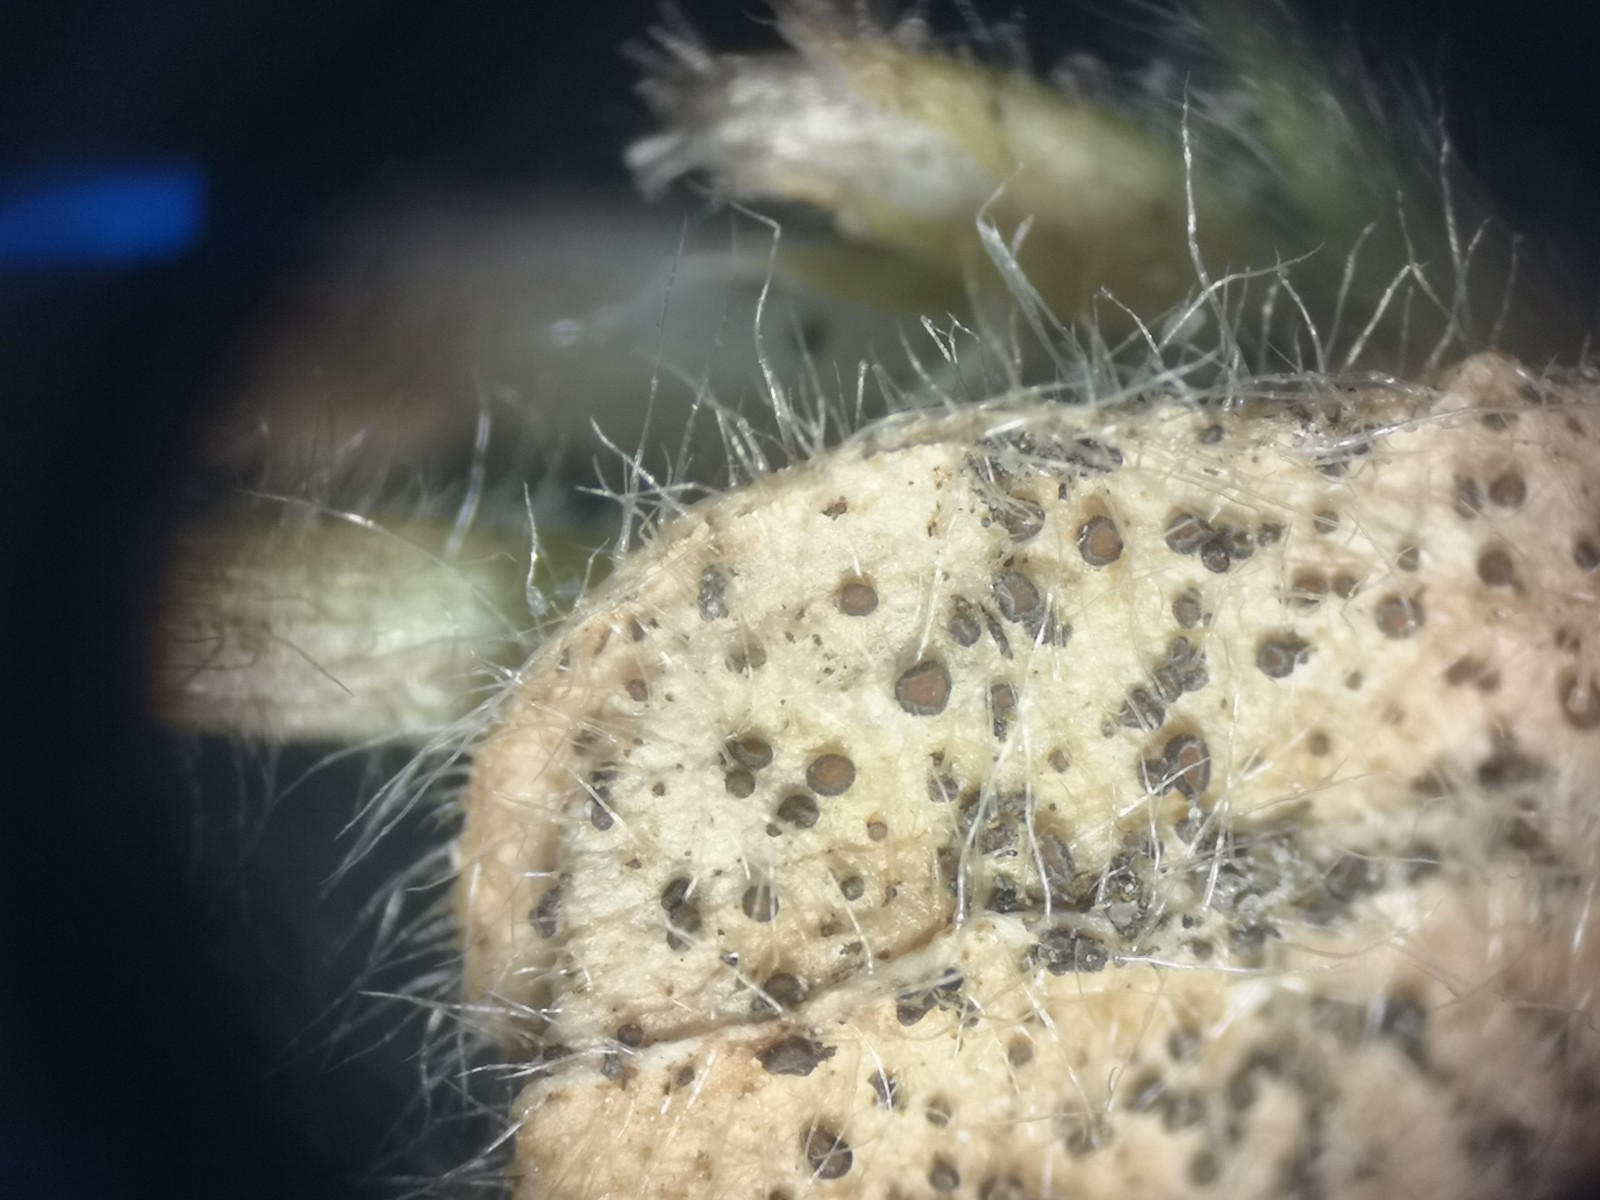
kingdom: Fungi
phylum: Ascomycota
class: Leotiomycetes
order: Helotiales
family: Drepanopezizaceae
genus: Leptotrochila
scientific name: Leptotrochila cerastiorum
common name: hønsetarm-bladskive
